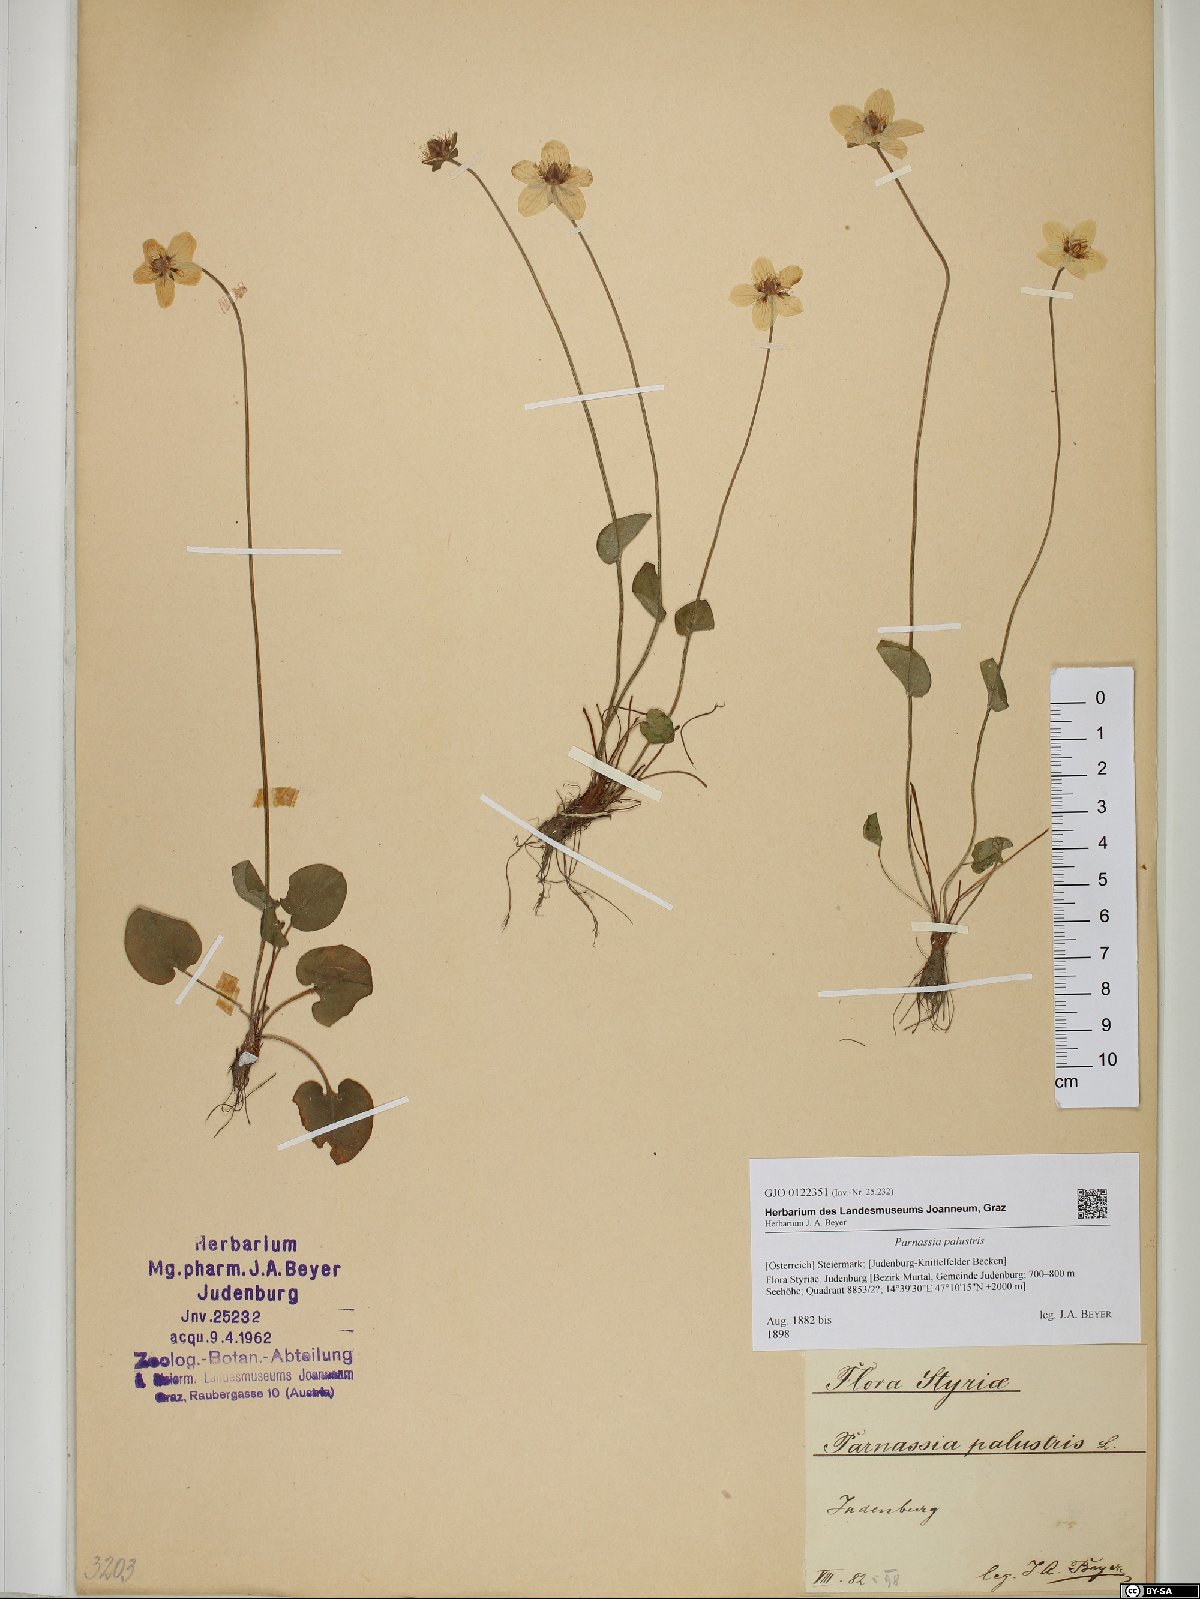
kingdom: Plantae
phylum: Tracheophyta
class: Magnoliopsida
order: Celastrales
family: Parnassiaceae
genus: Parnassia
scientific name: Parnassia palustris
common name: Grass-of-parnassus
